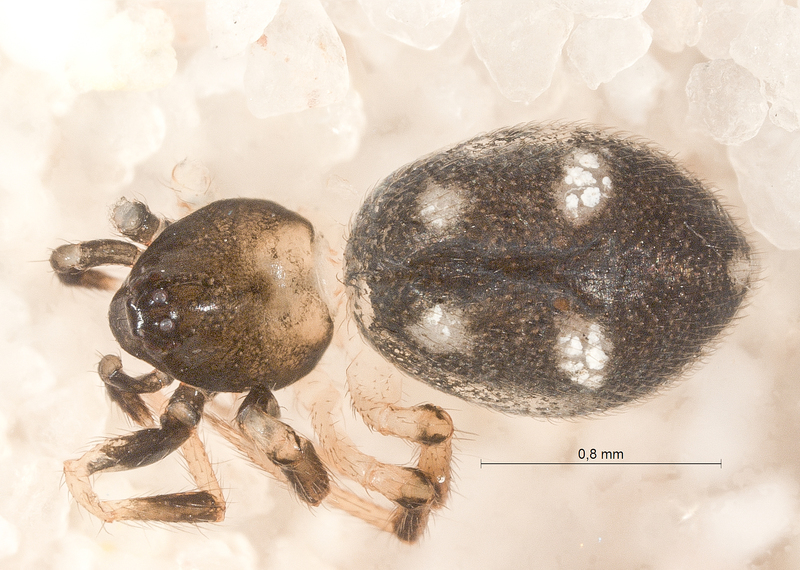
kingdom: Animalia
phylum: Arthropoda
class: Arachnida
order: Araneae
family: Theridiidae
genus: Euryopis
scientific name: Euryopis quinqueguttata
